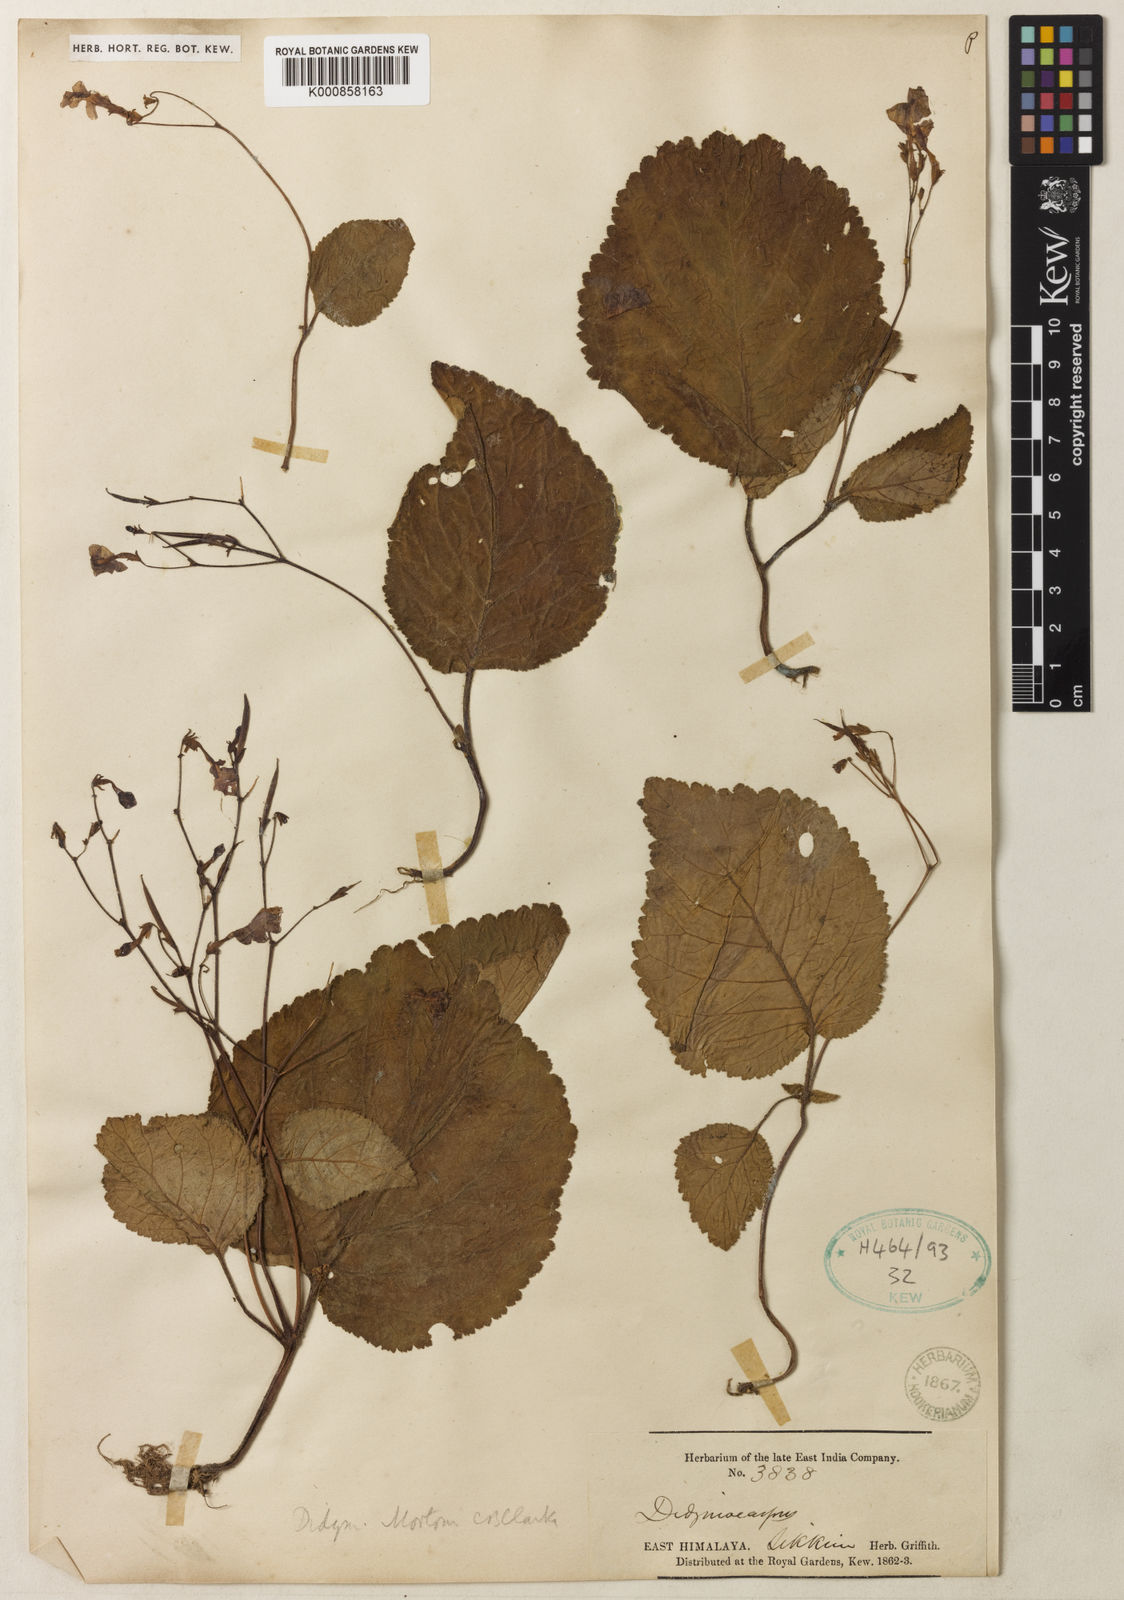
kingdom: Plantae
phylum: Tracheophyta
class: Magnoliopsida
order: Lamiales
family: Gesneriaceae
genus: Henckelia
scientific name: Henckelia
